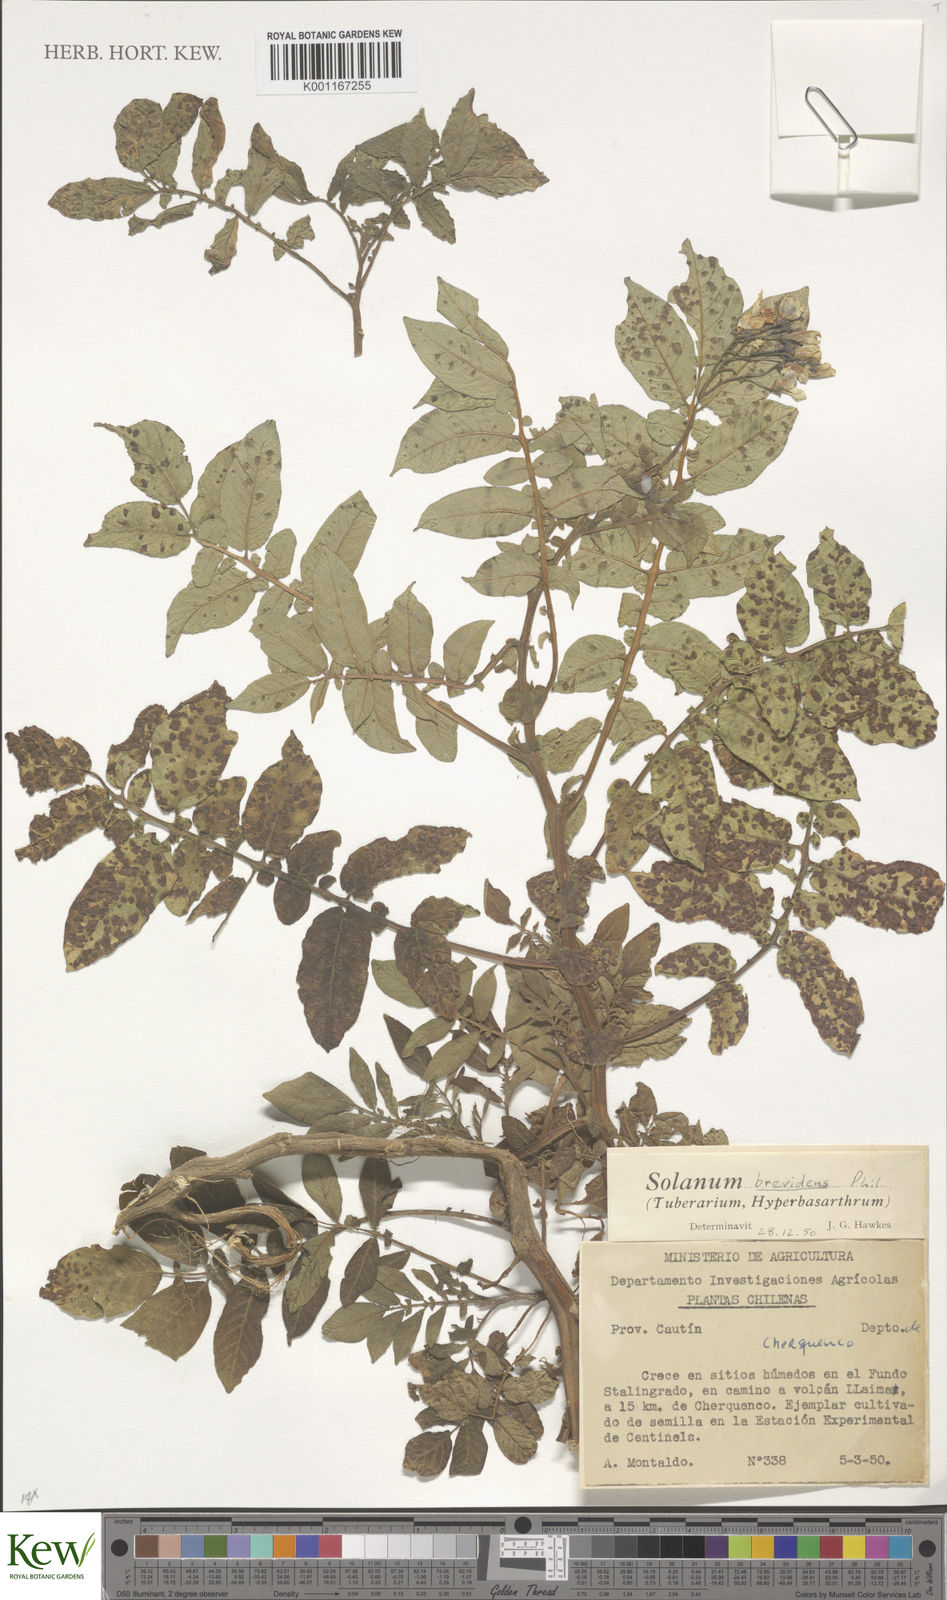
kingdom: Plantae
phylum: Tracheophyta
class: Magnoliopsida
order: Solanales
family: Solanaceae
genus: Solanum
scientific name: Solanum palustre
